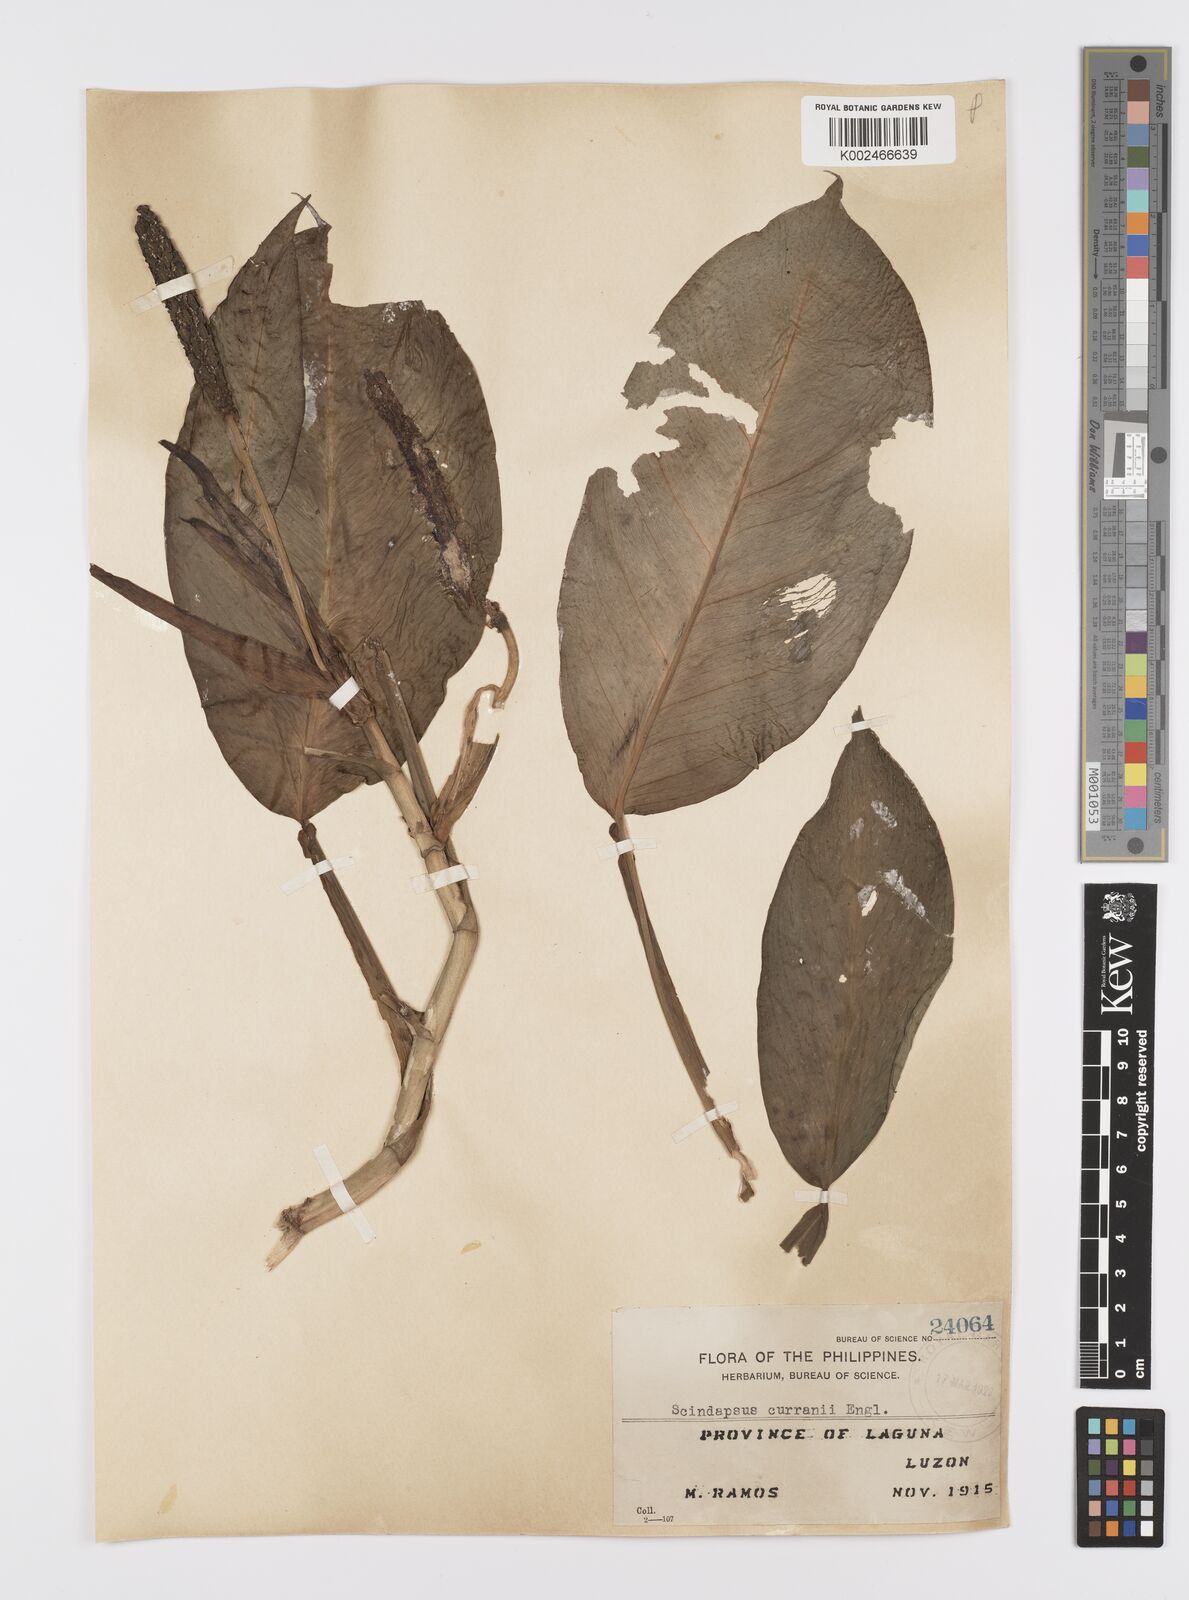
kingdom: Plantae
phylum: Tracheophyta
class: Liliopsida
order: Alismatales
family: Araceae
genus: Scindapsus
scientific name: Scindapsus curranii
